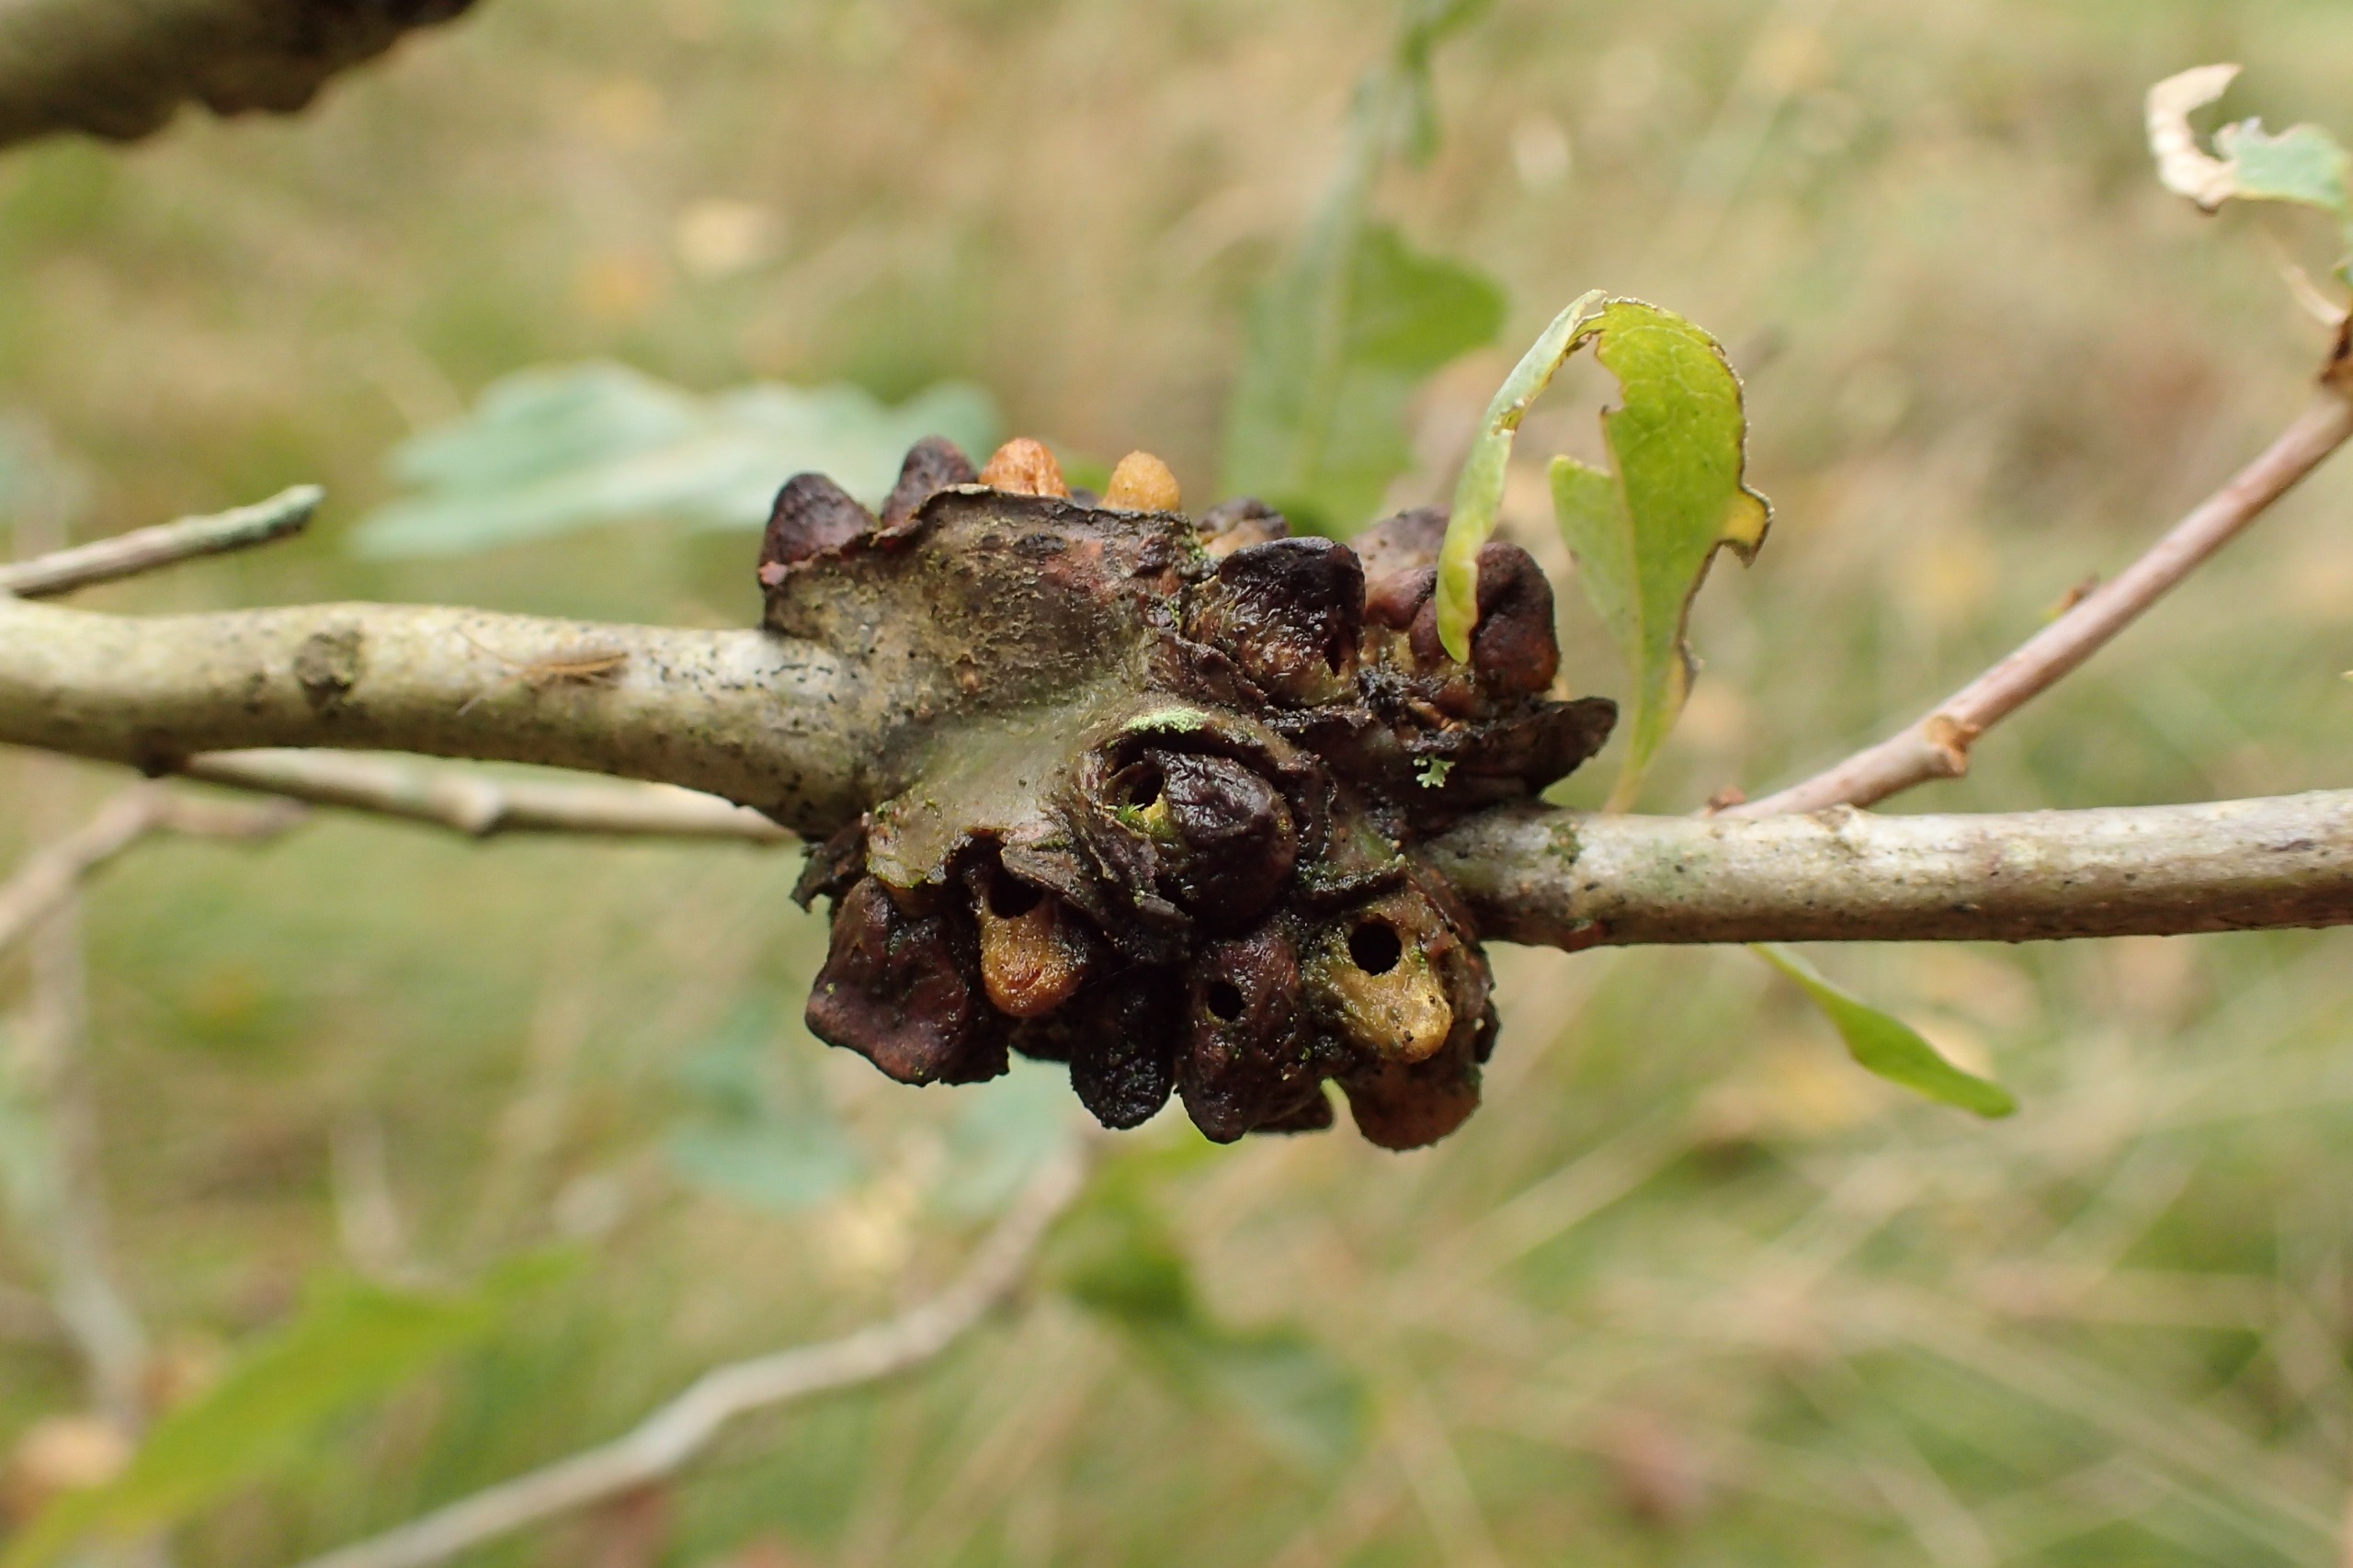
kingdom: Animalia
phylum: Arthropoda
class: Insecta
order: Hymenoptera
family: Cynipidae
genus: Andricus
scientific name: Andricus testaceipes
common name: Barkgalhveps
